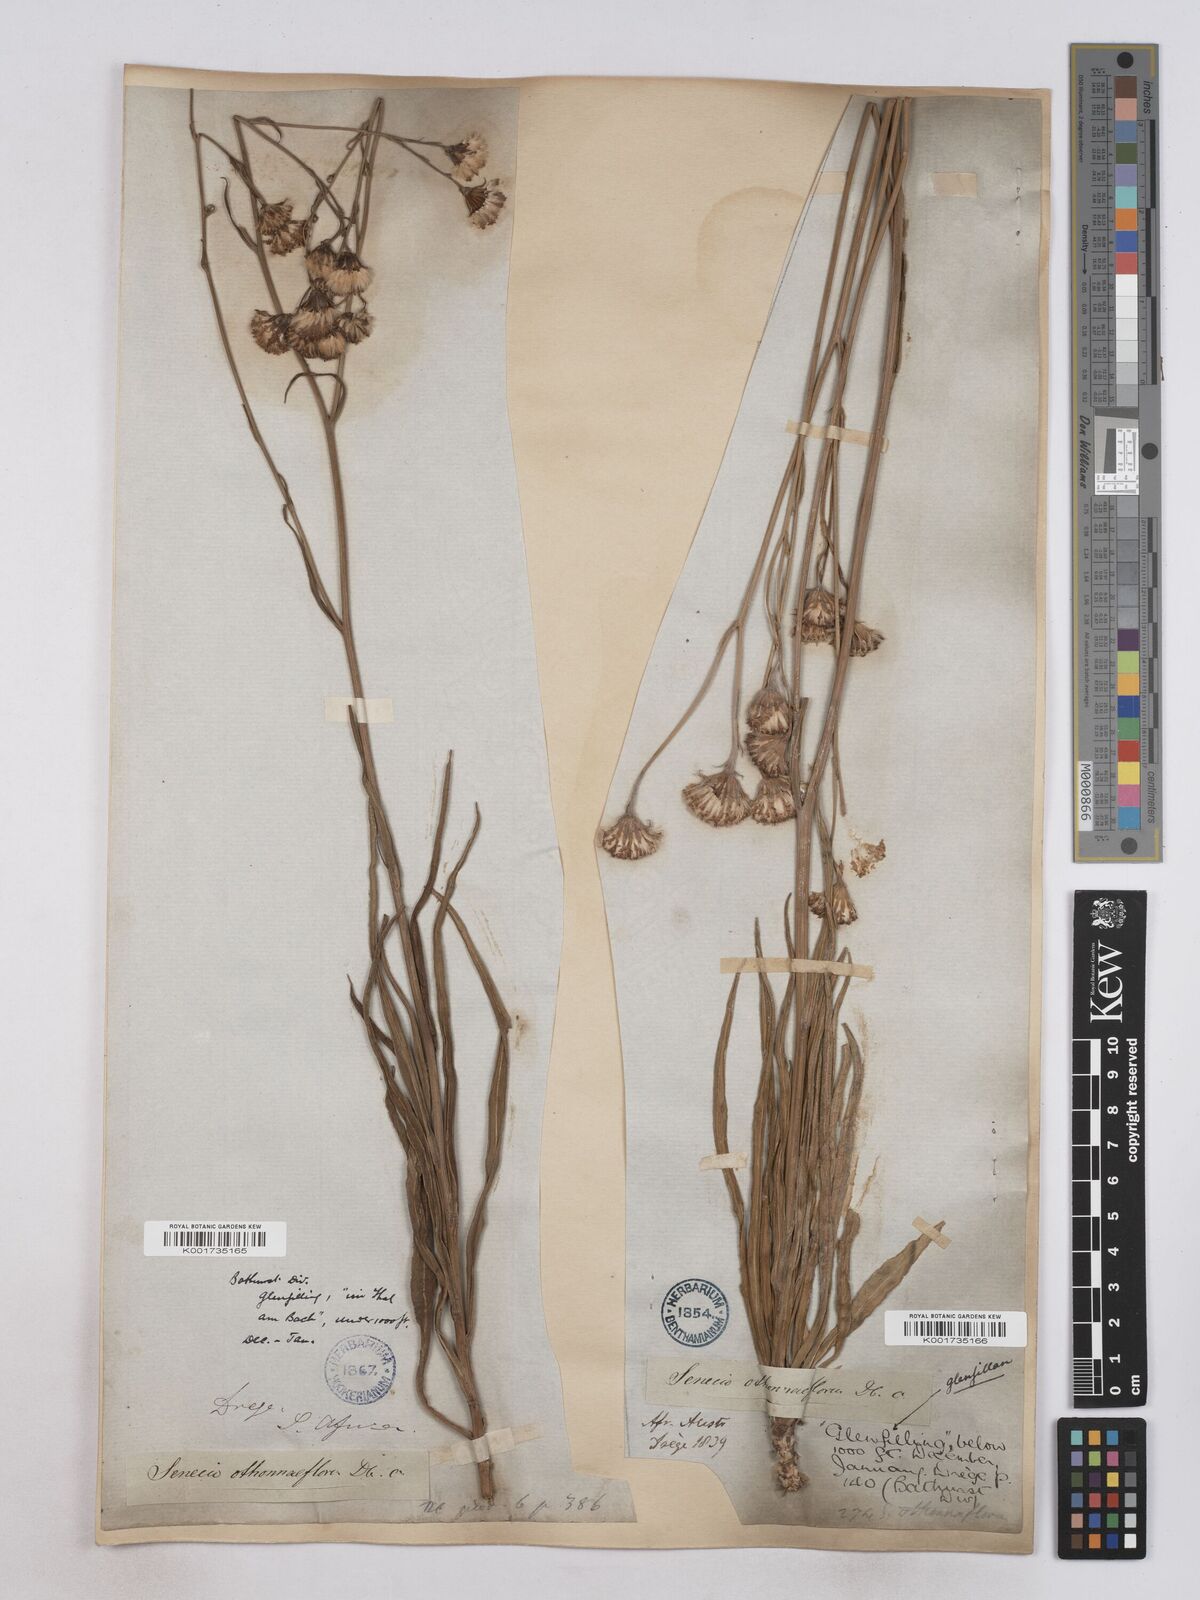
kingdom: Plantae
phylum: Tracheophyta
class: Magnoliopsida
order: Asterales
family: Asteraceae
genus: Senecio
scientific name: Senecio othonniflorus
